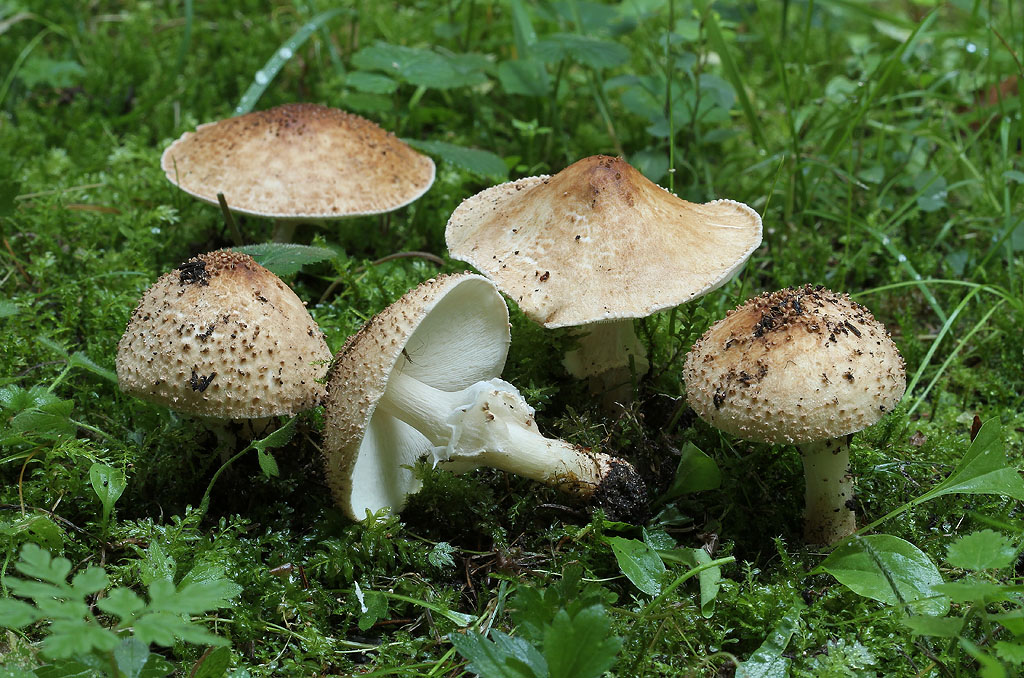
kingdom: Fungi
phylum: Basidiomycota
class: Agaricomycetes
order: Agaricales
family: Agaricaceae
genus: Echinoderma
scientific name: Echinoderma asperum
